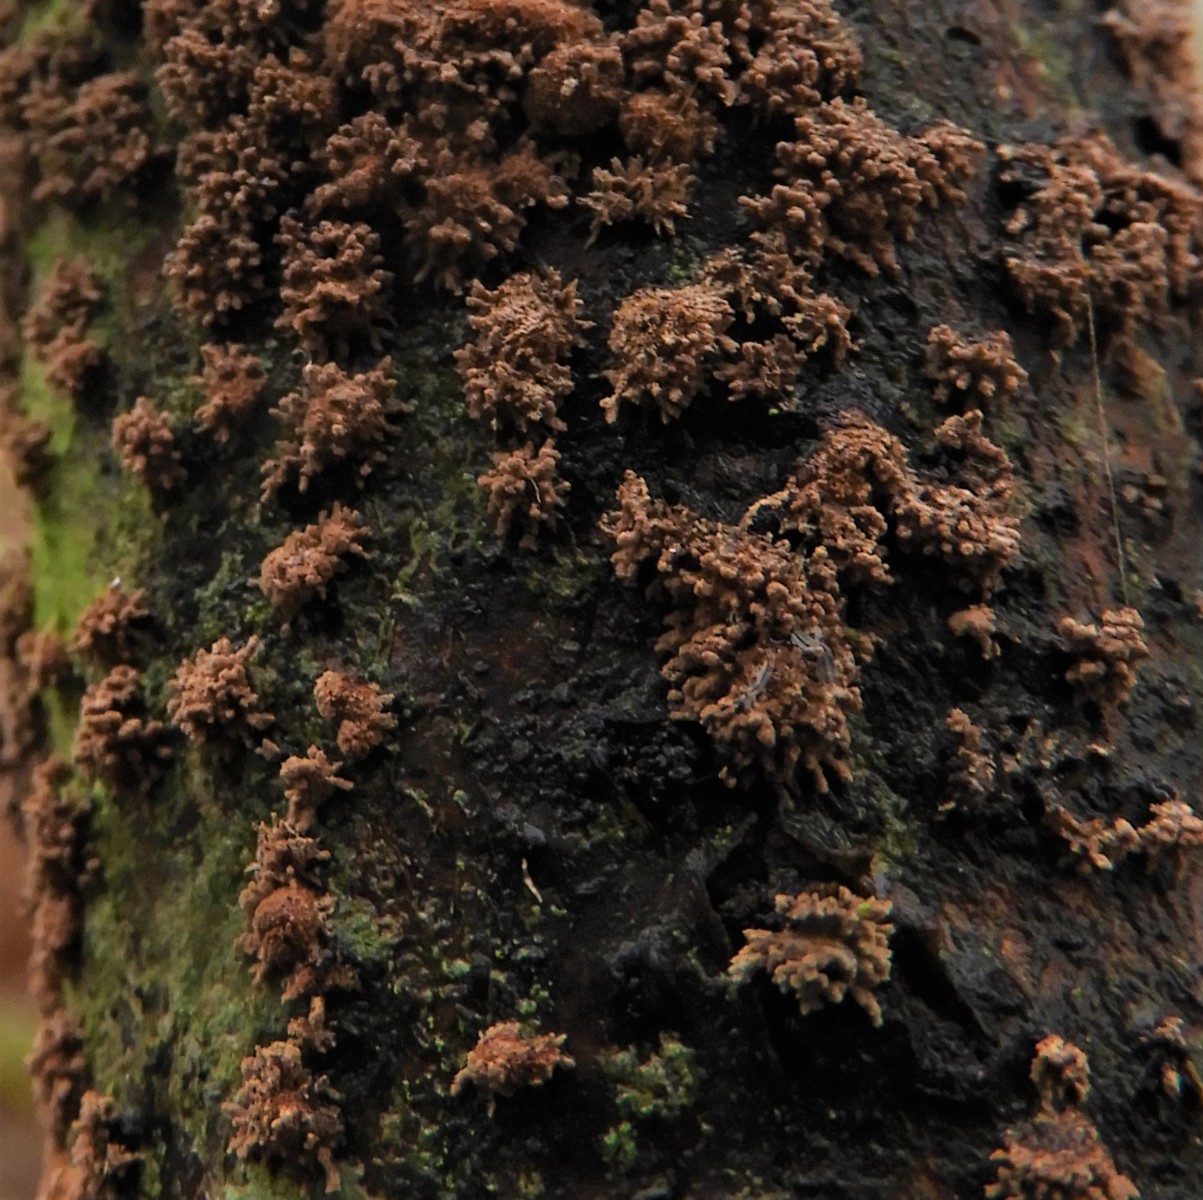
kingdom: Fungi
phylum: Ascomycota
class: Sordariomycetes
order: Xylariales
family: Hypoxylaceae
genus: Hypoxylon
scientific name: Hypoxylon howeanum
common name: halvkugleformet kulbær
